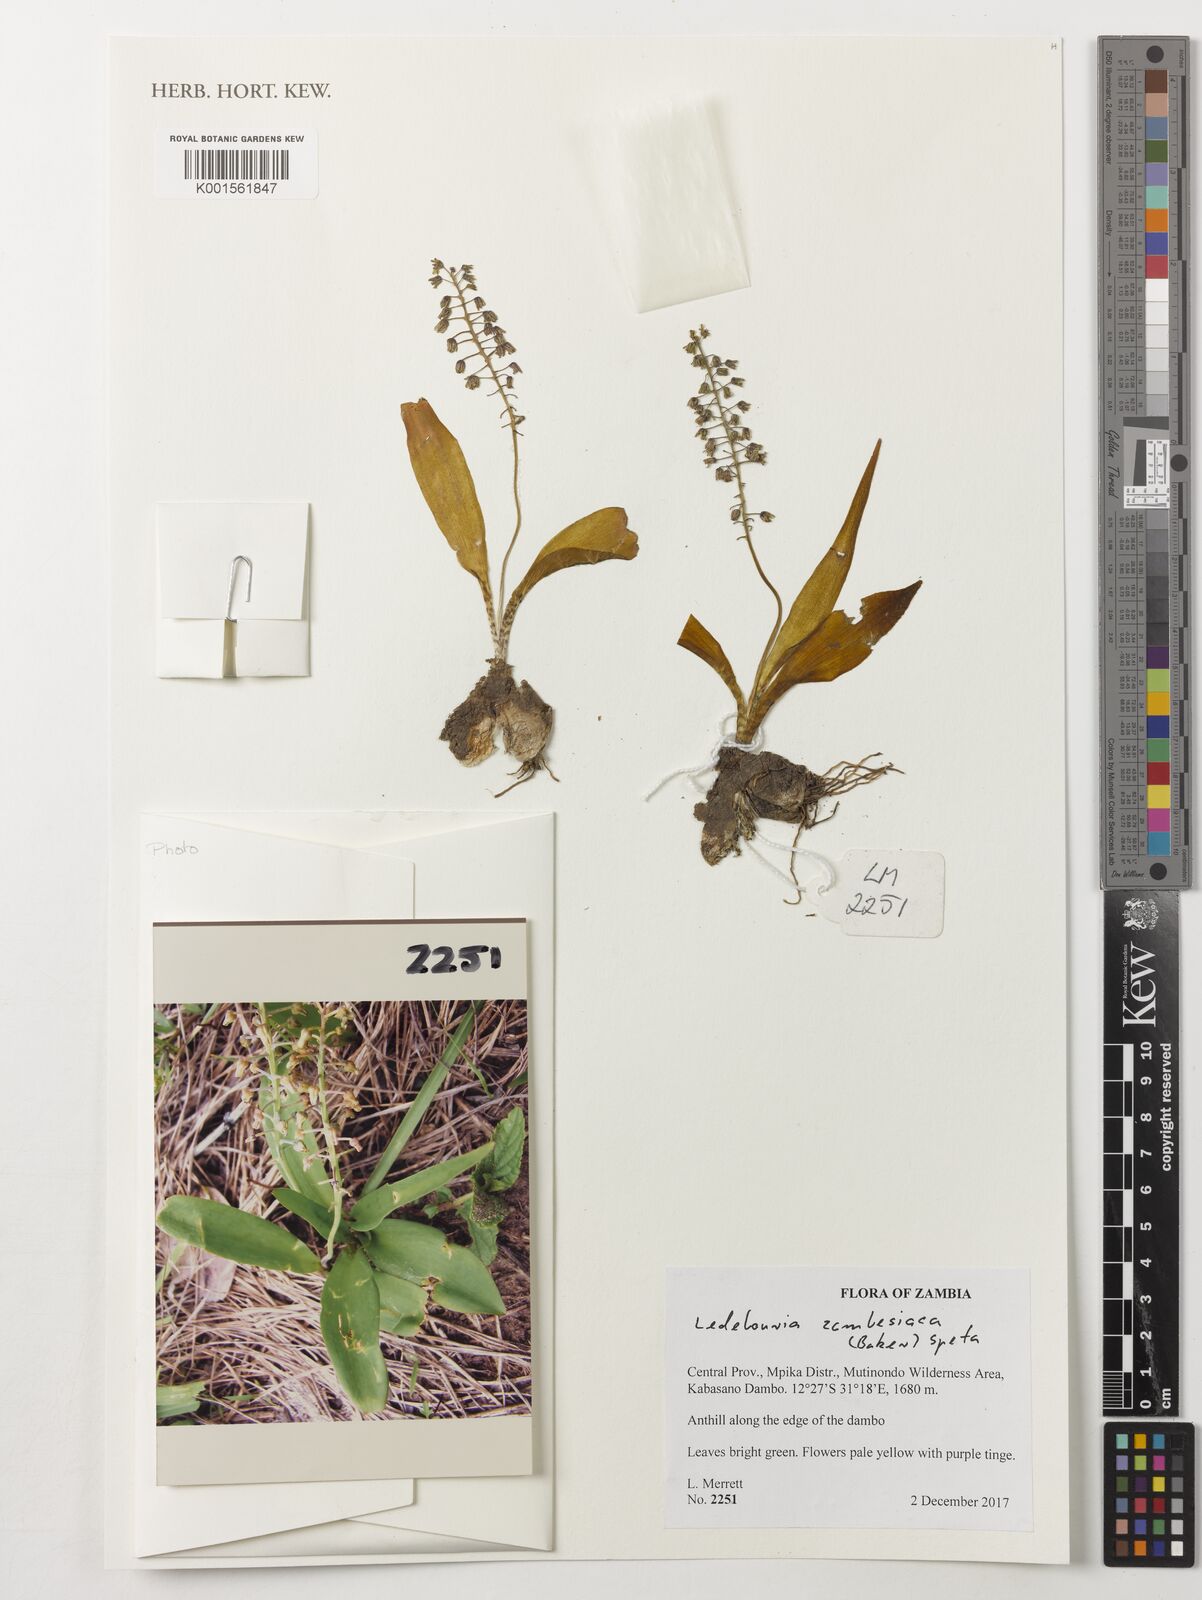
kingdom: Plantae
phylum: Tracheophyta
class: Liliopsida
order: Asparagales
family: Asparagaceae
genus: Ledebouria
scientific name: Ledebouria zambesiaca
